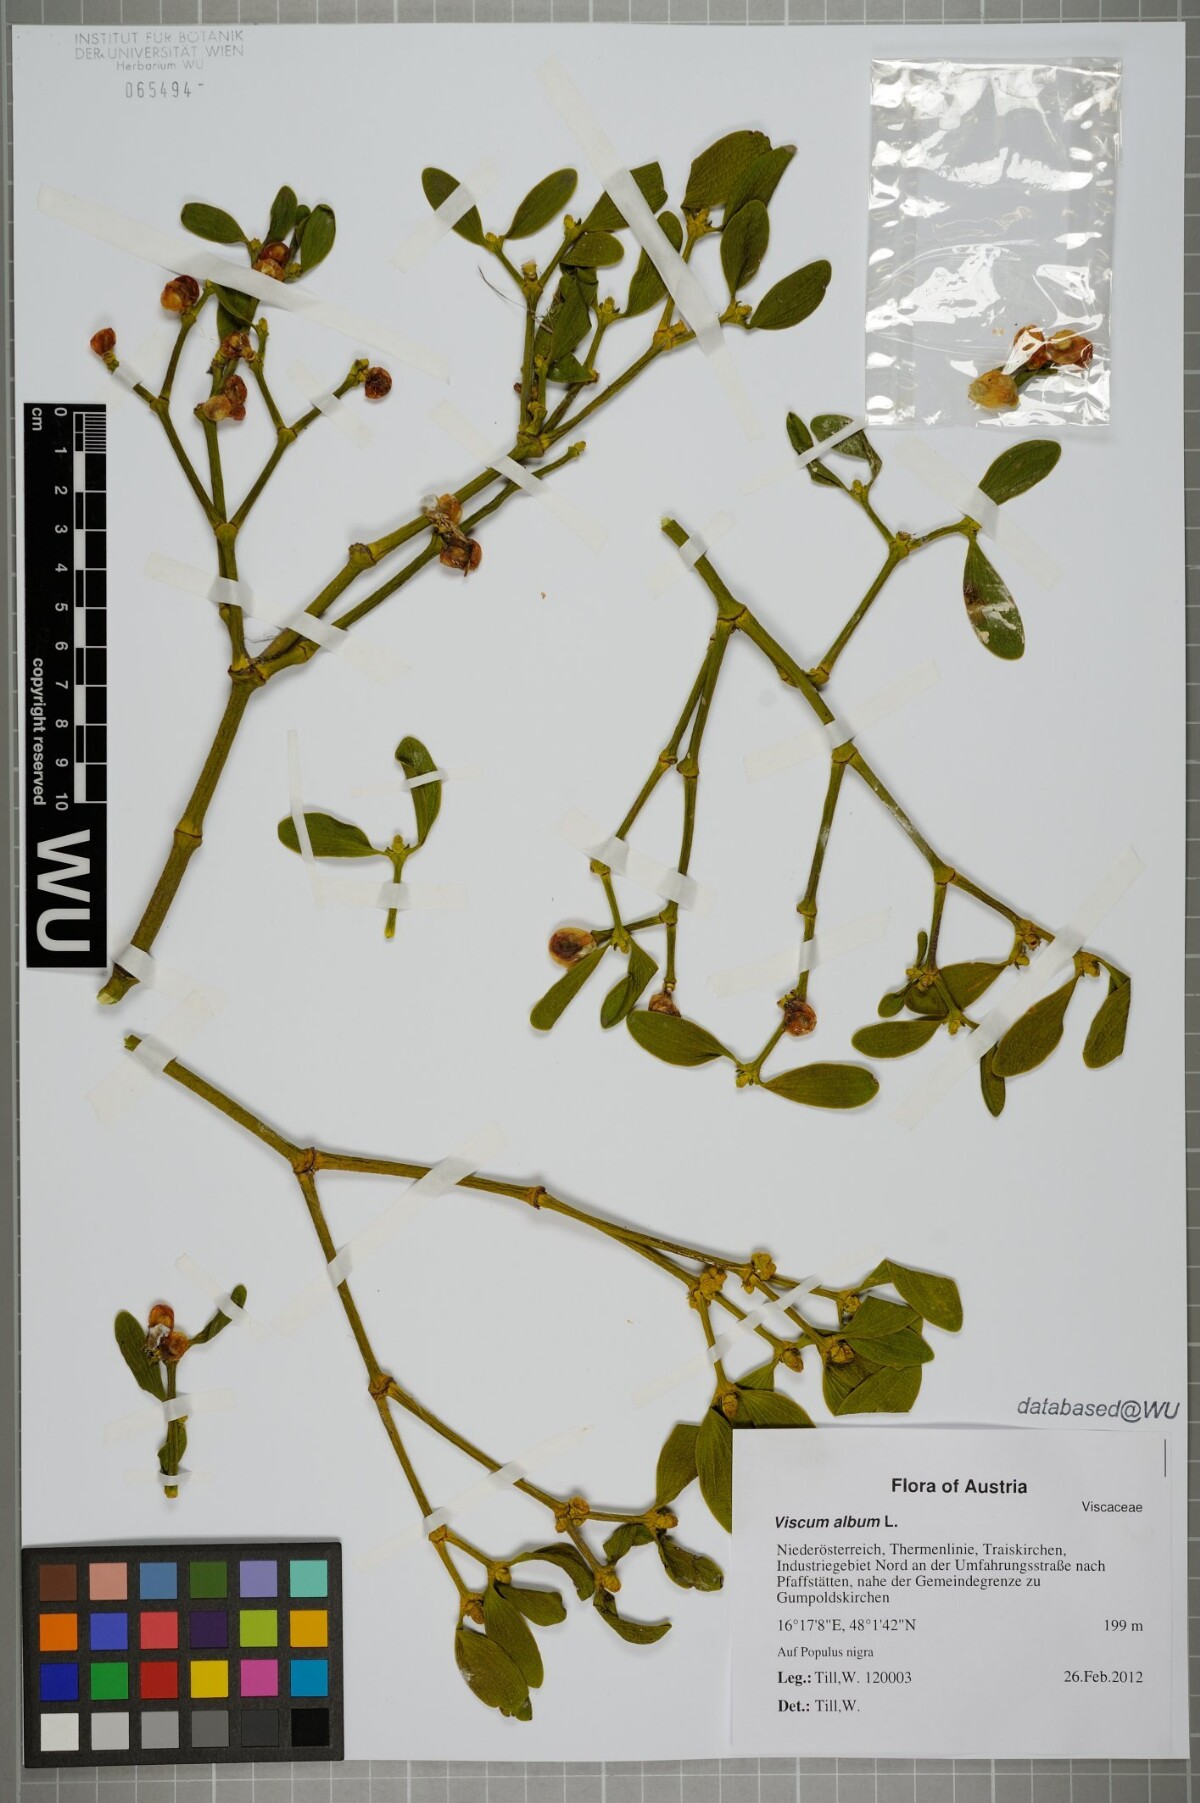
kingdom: Plantae
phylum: Tracheophyta
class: Magnoliopsida
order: Santalales
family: Viscaceae
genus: Viscum
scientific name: Viscum album
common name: Mistletoe
